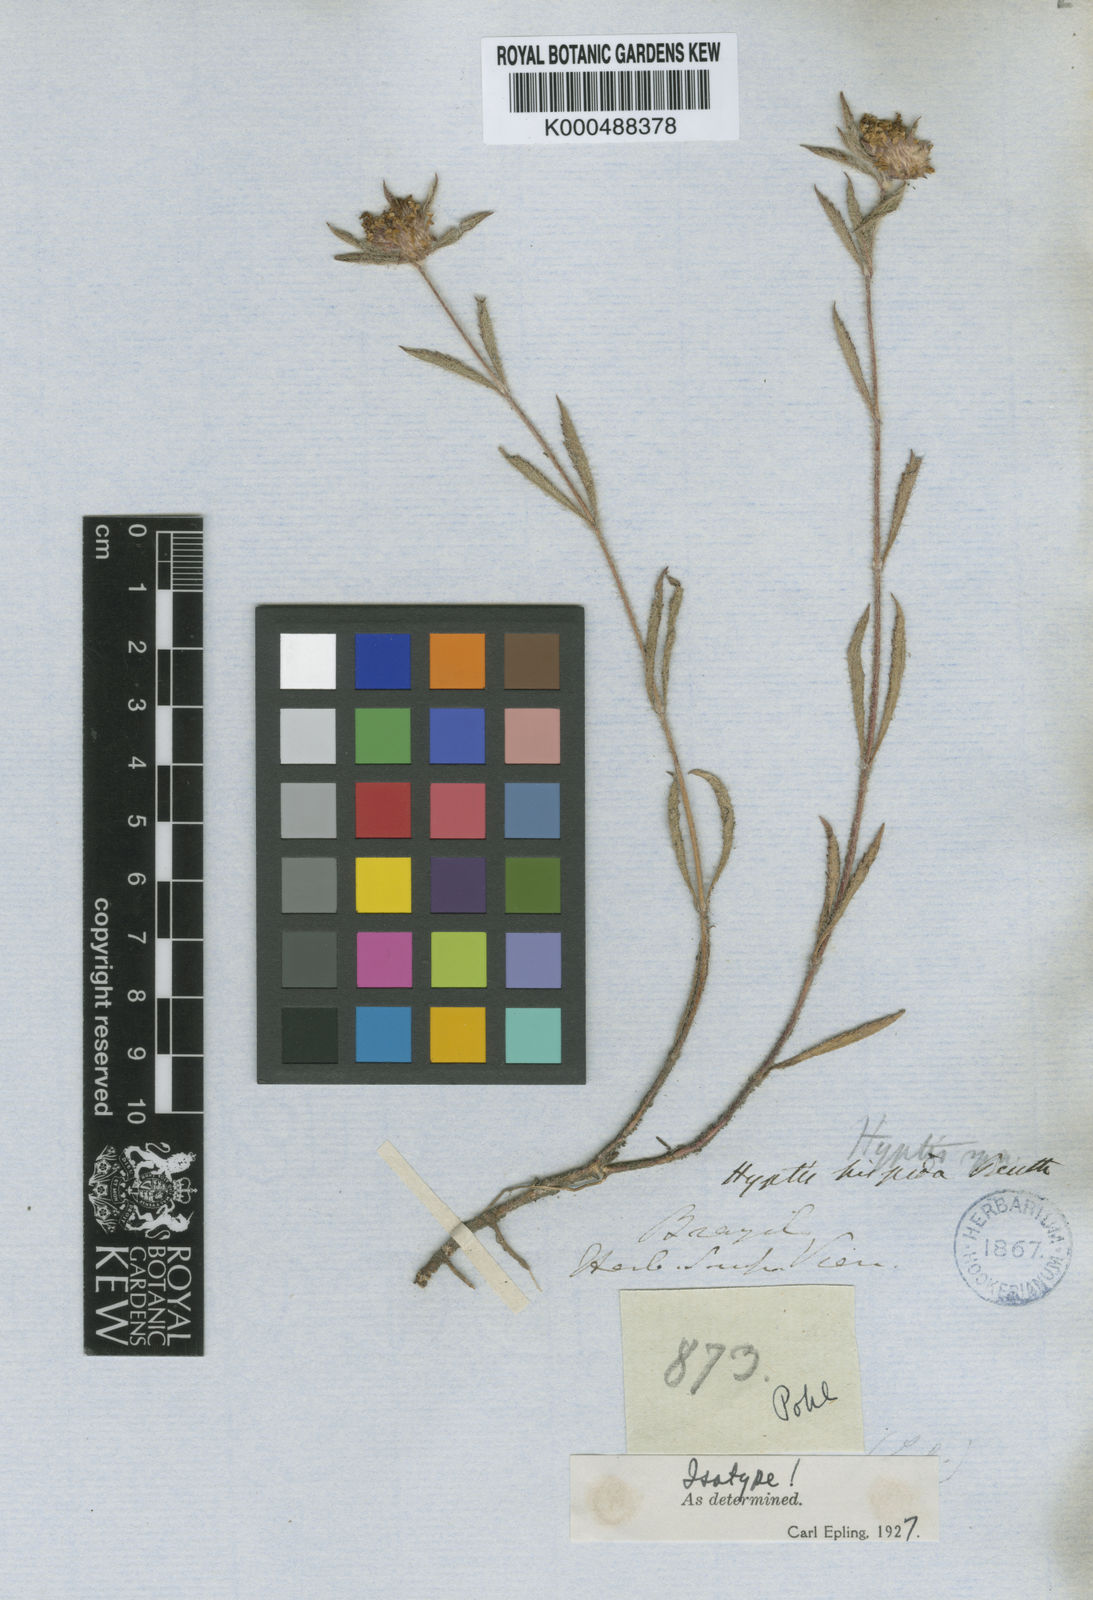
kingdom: Plantae
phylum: Tracheophyta
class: Magnoliopsida
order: Lamiales
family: Lamiaceae
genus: Hyptis
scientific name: Hyptis hispida
